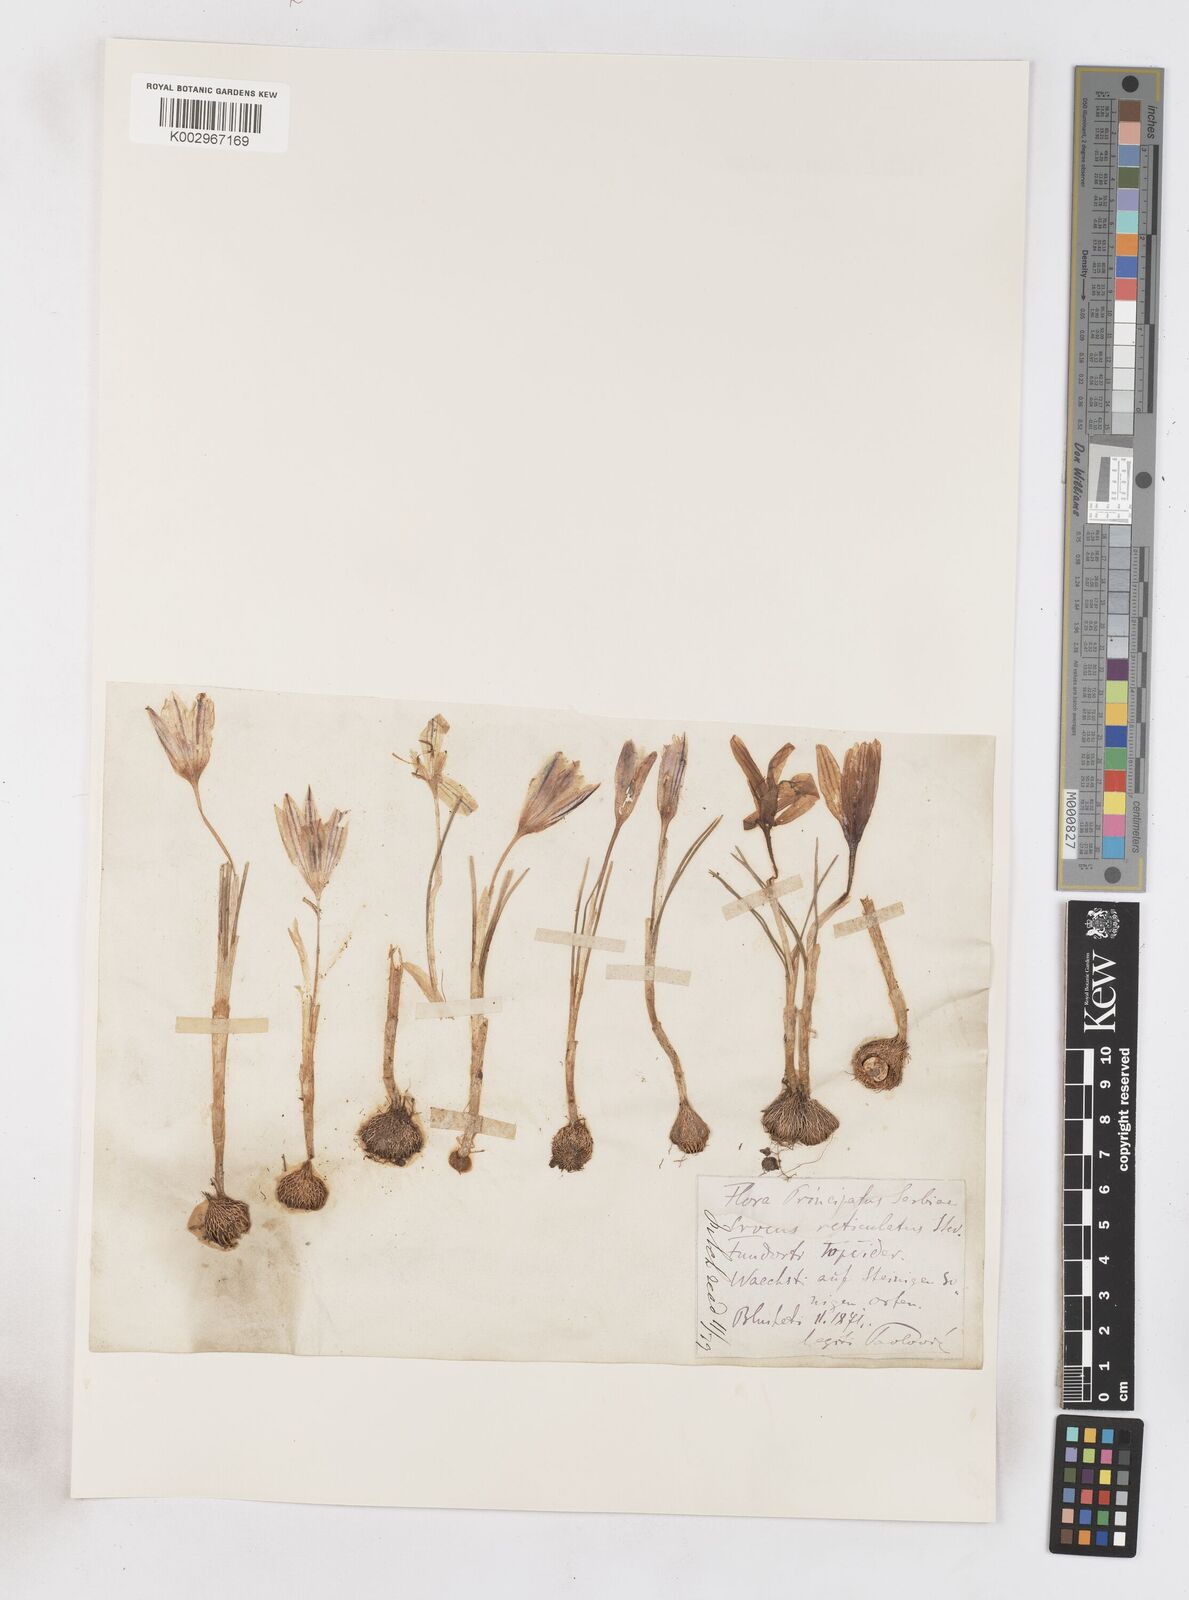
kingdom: Plantae
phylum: Tracheophyta
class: Liliopsida
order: Asparagales
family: Iridaceae
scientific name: Iridaceae
